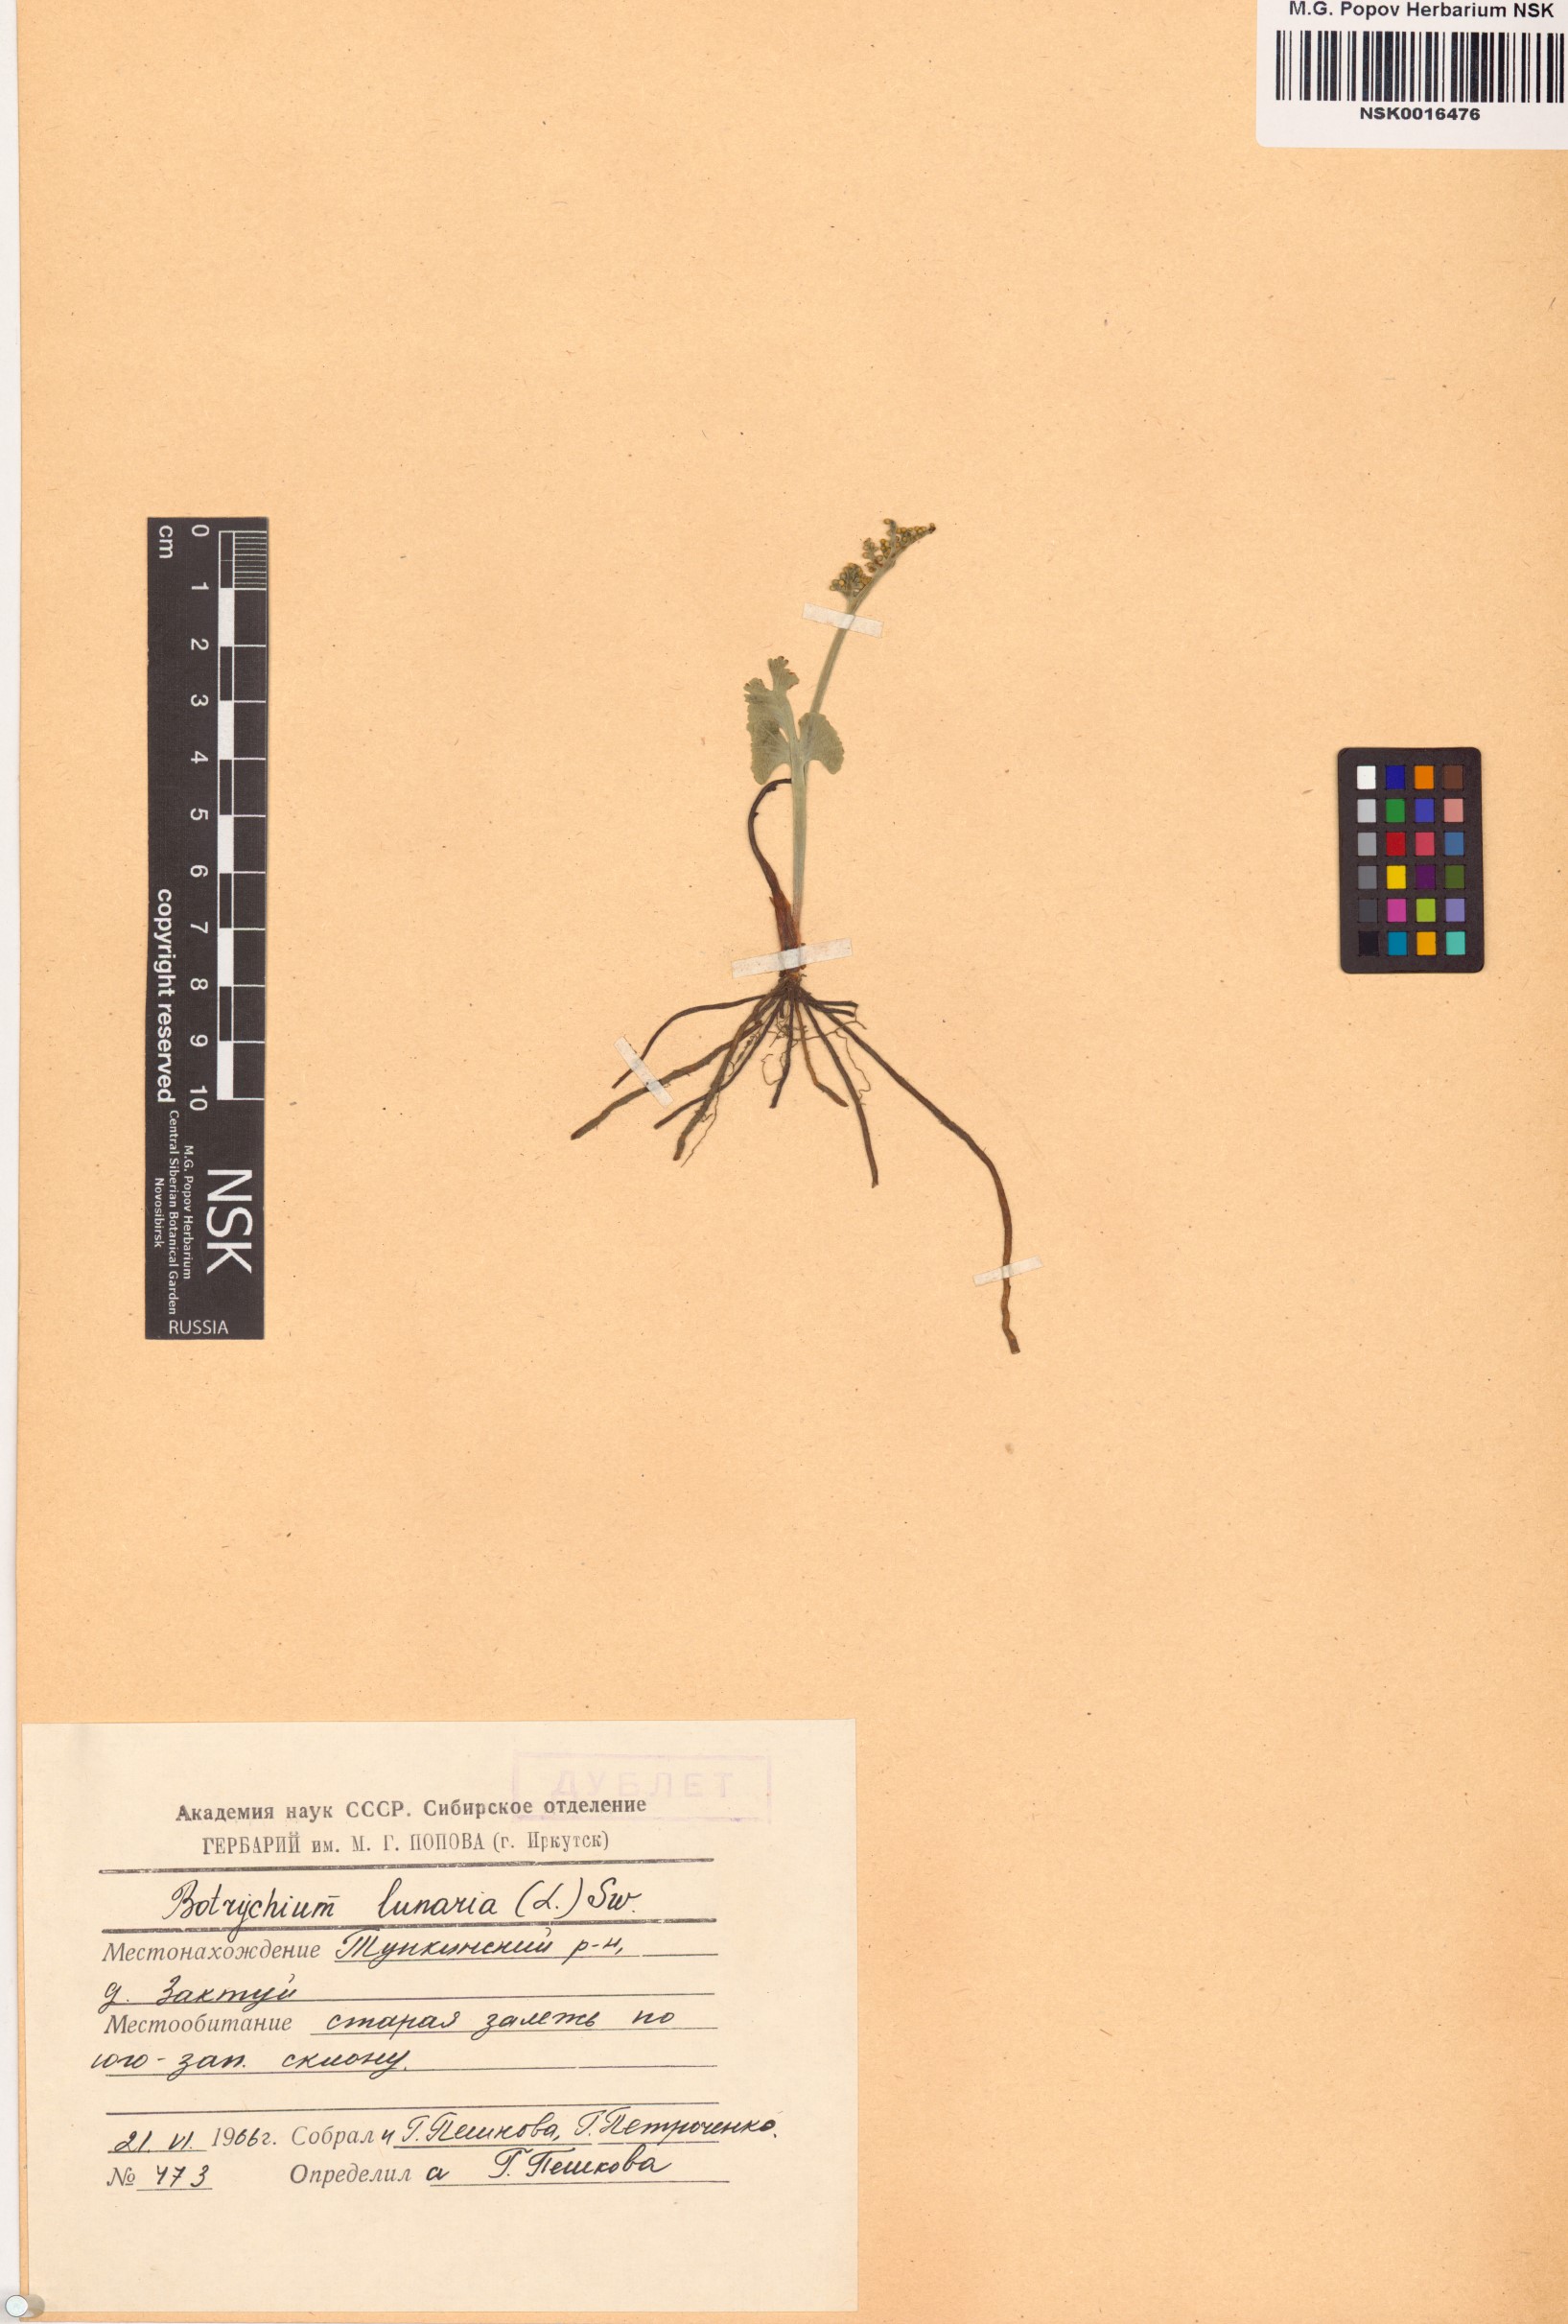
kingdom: Plantae
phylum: Tracheophyta
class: Polypodiopsida
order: Ophioglossales
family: Ophioglossaceae
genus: Botrychium
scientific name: Botrychium lunaria
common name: Moonwort
